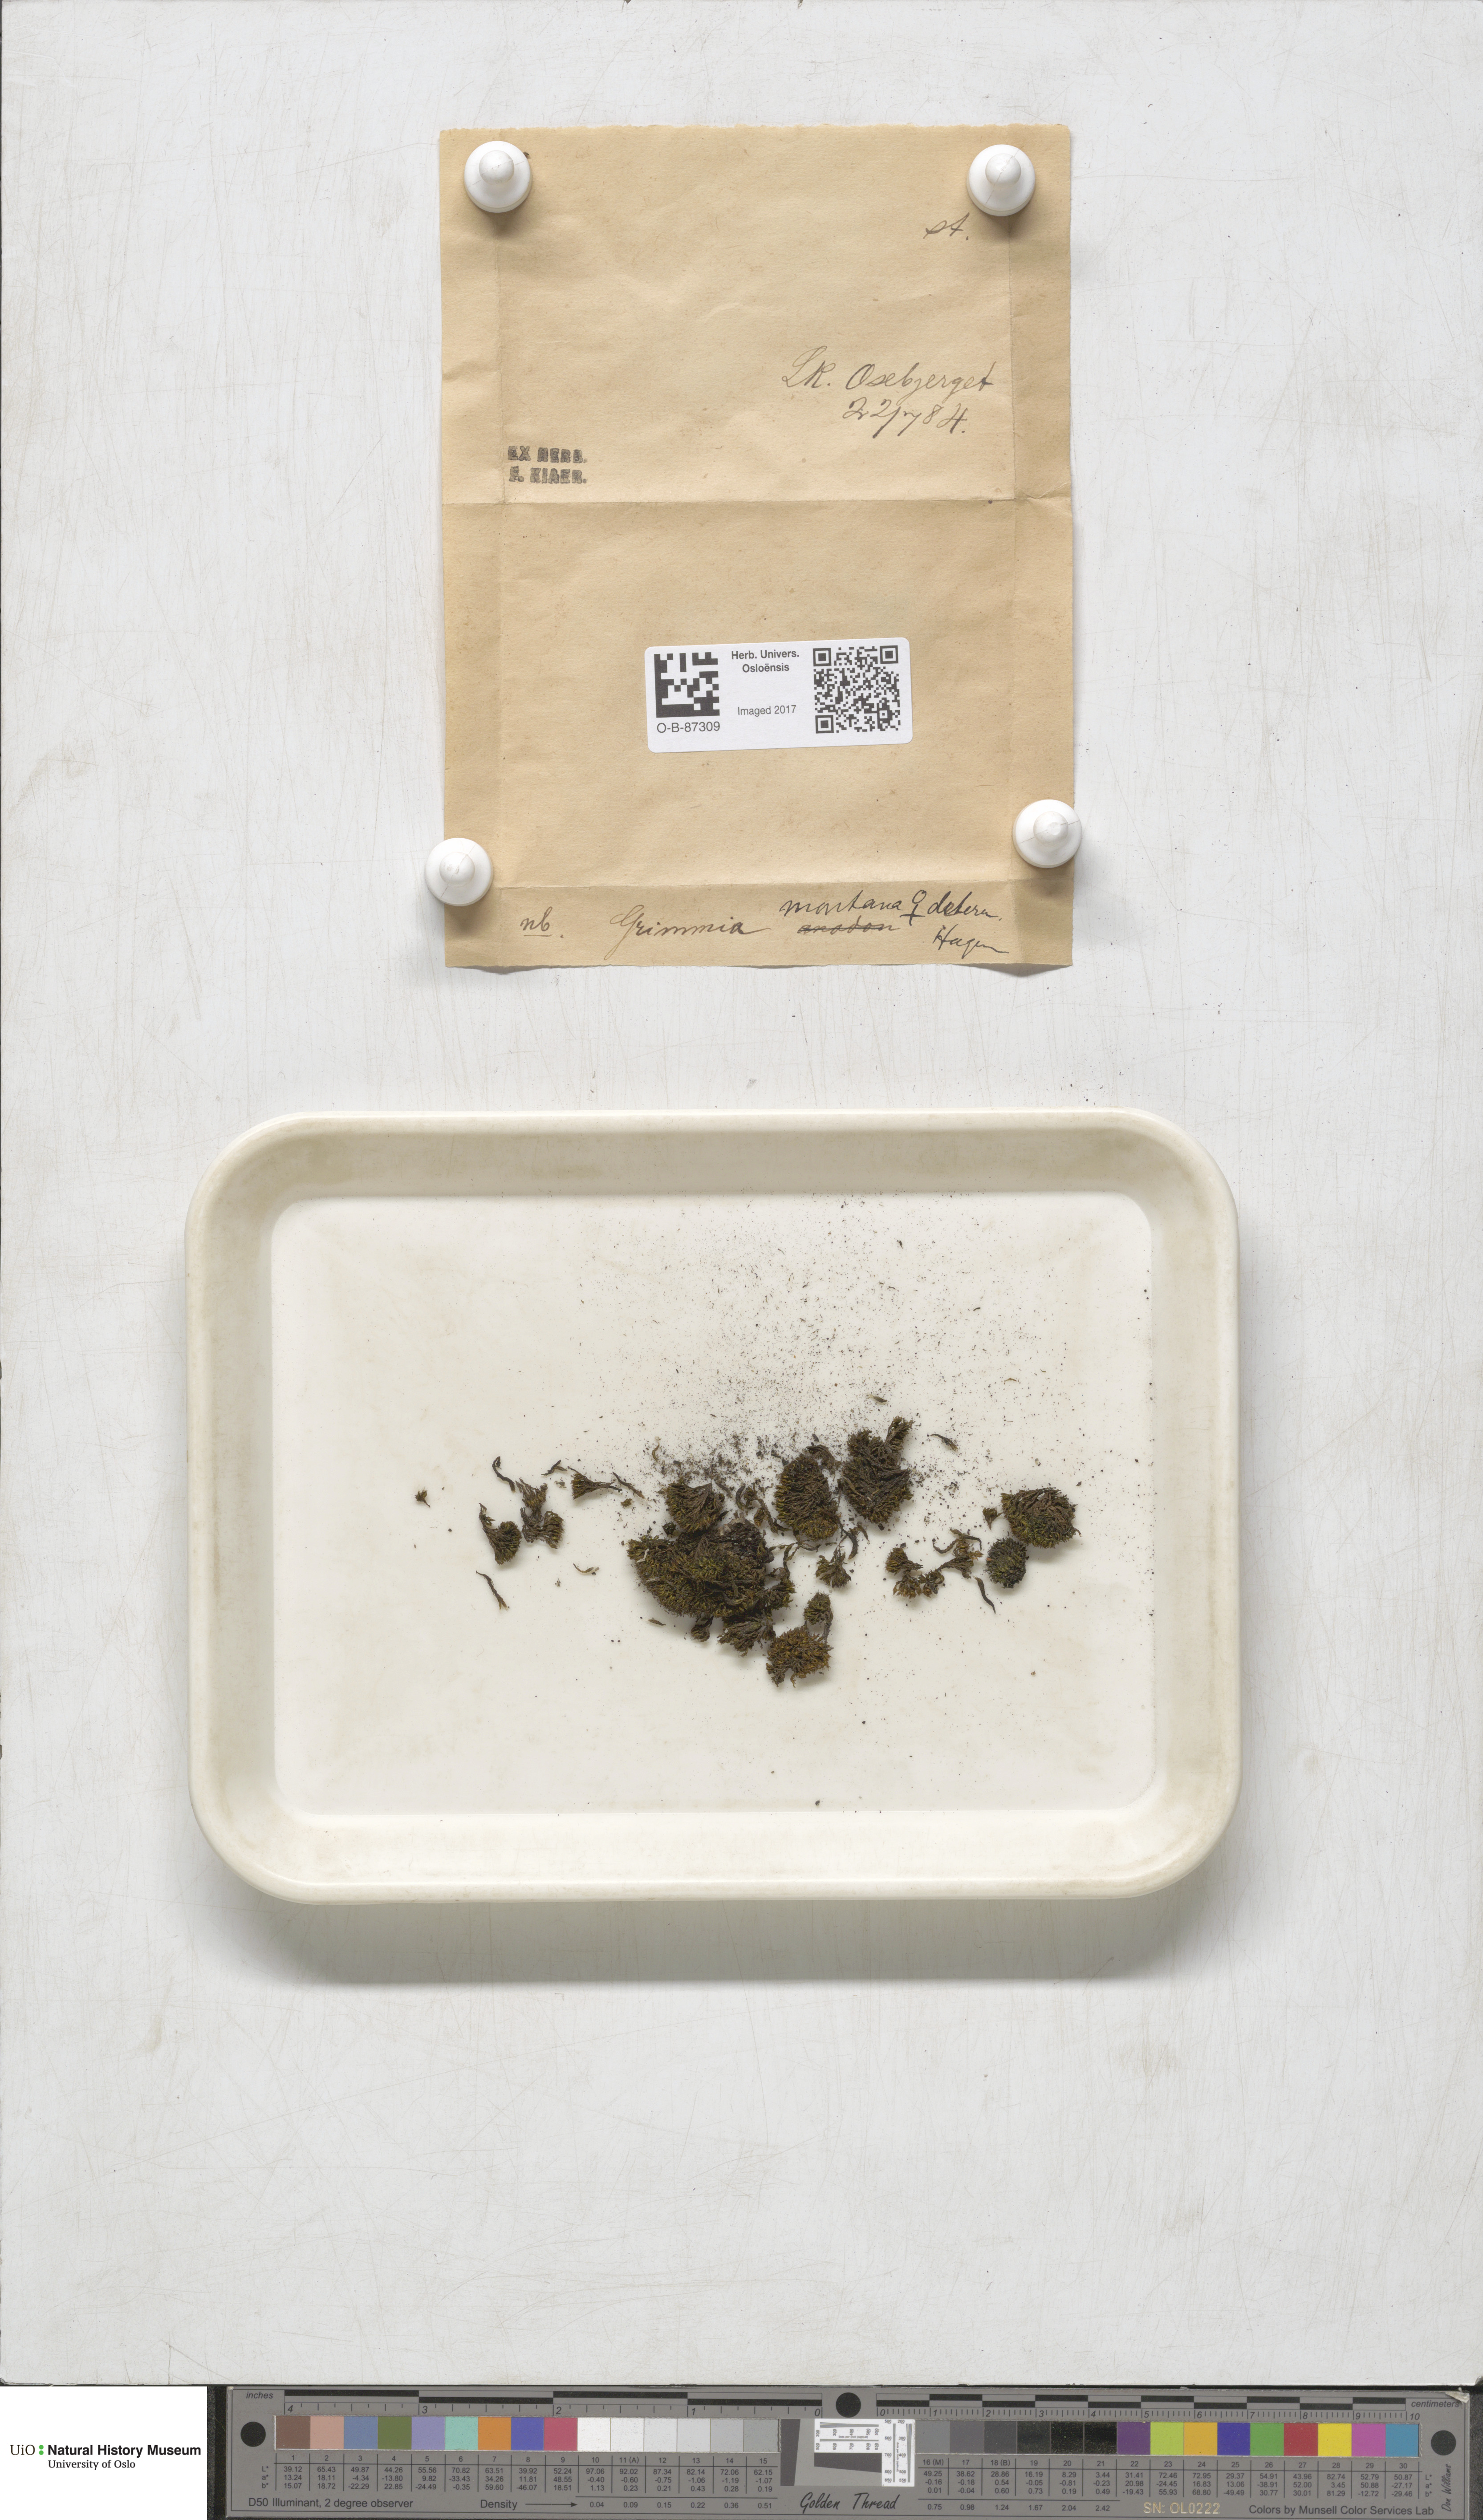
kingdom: Plantae
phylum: Bryophyta
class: Bryopsida
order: Grimmiales
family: Grimmiaceae
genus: Grimmia
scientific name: Grimmia montana
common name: Sun grimmia
